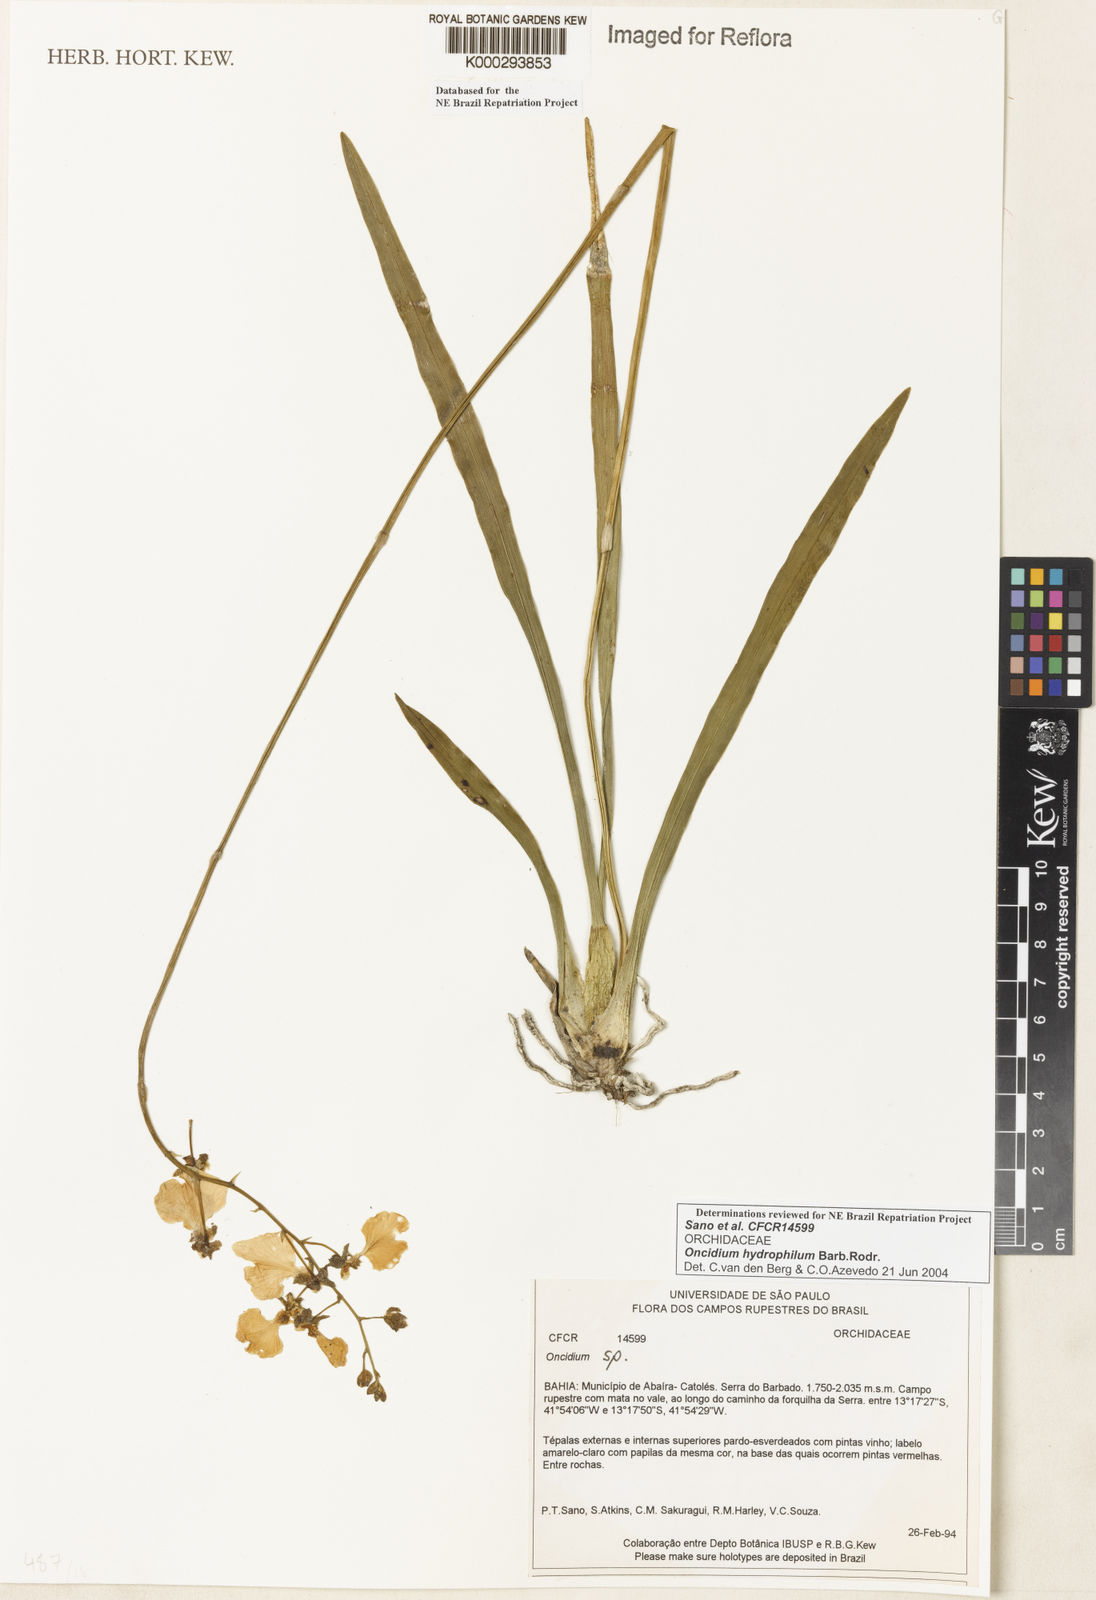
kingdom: Plantae
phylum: Tracheophyta
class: Liliopsida
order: Asparagales
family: Orchidaceae
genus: Gomesa
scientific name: Gomesa sincorana
